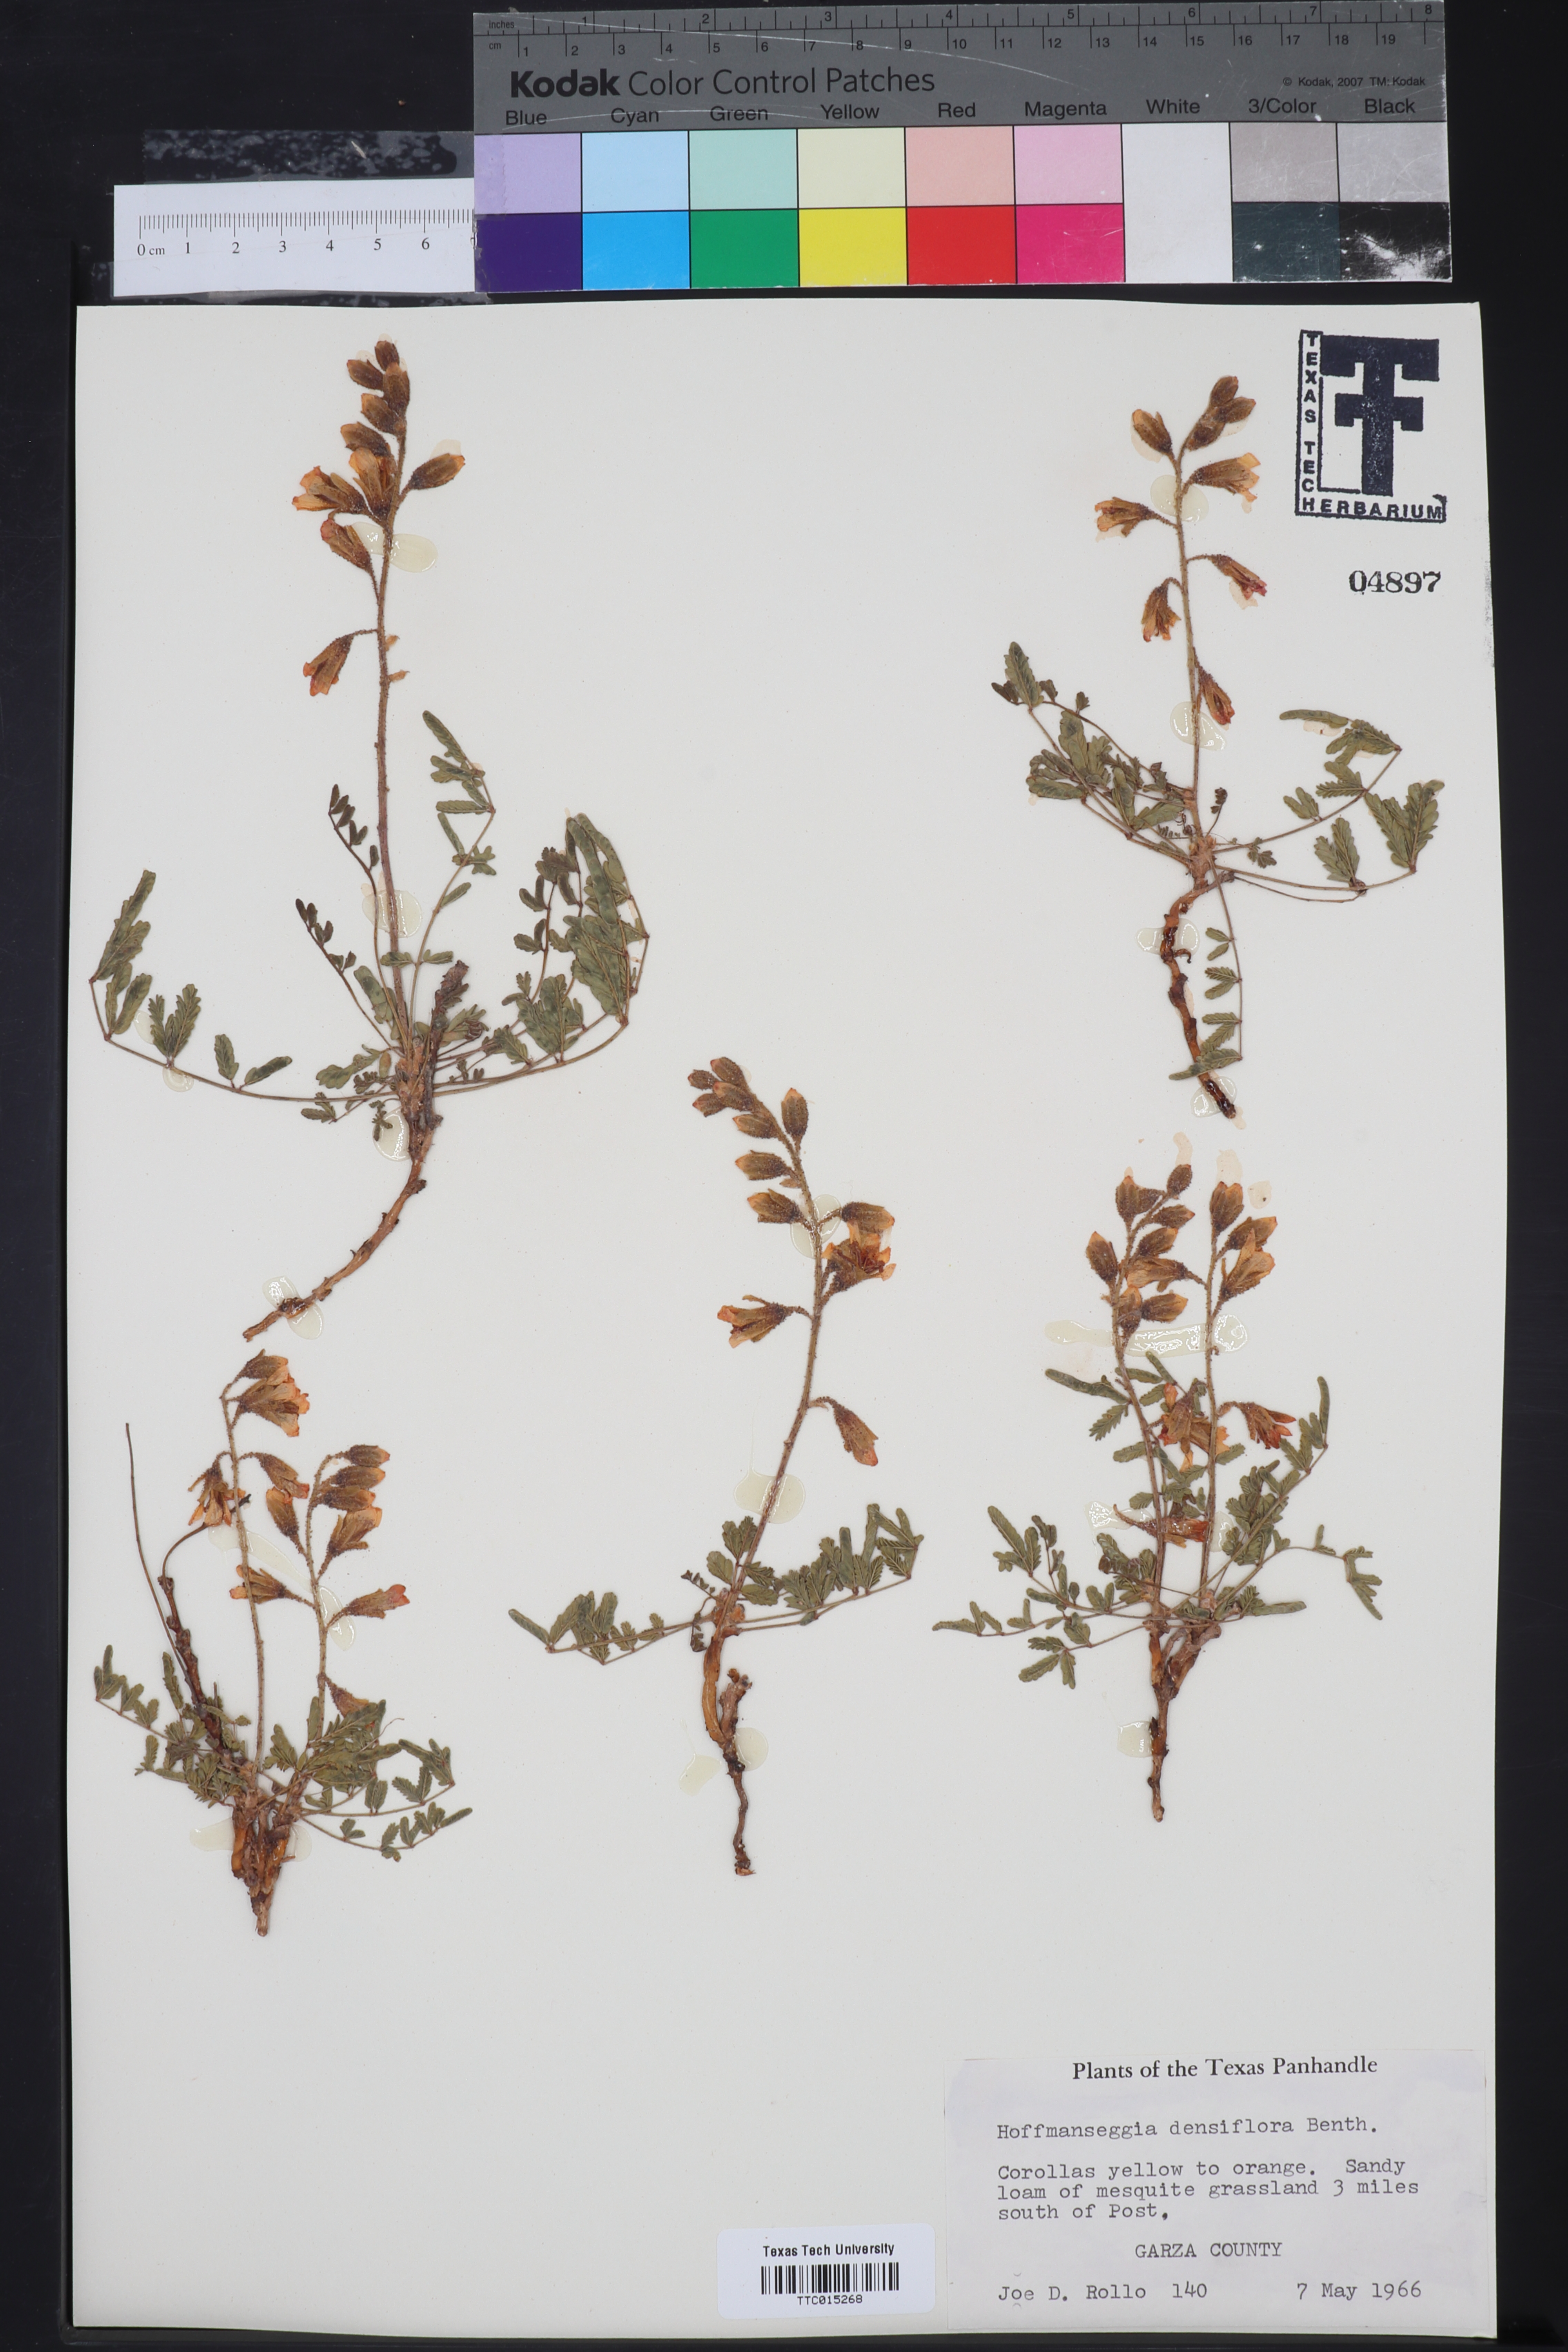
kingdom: Plantae
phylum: Tracheophyta
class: Magnoliopsida
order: Fabales
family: Fabaceae
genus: Hoffmannseggia
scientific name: Hoffmannseggia glauca
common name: Pignut
